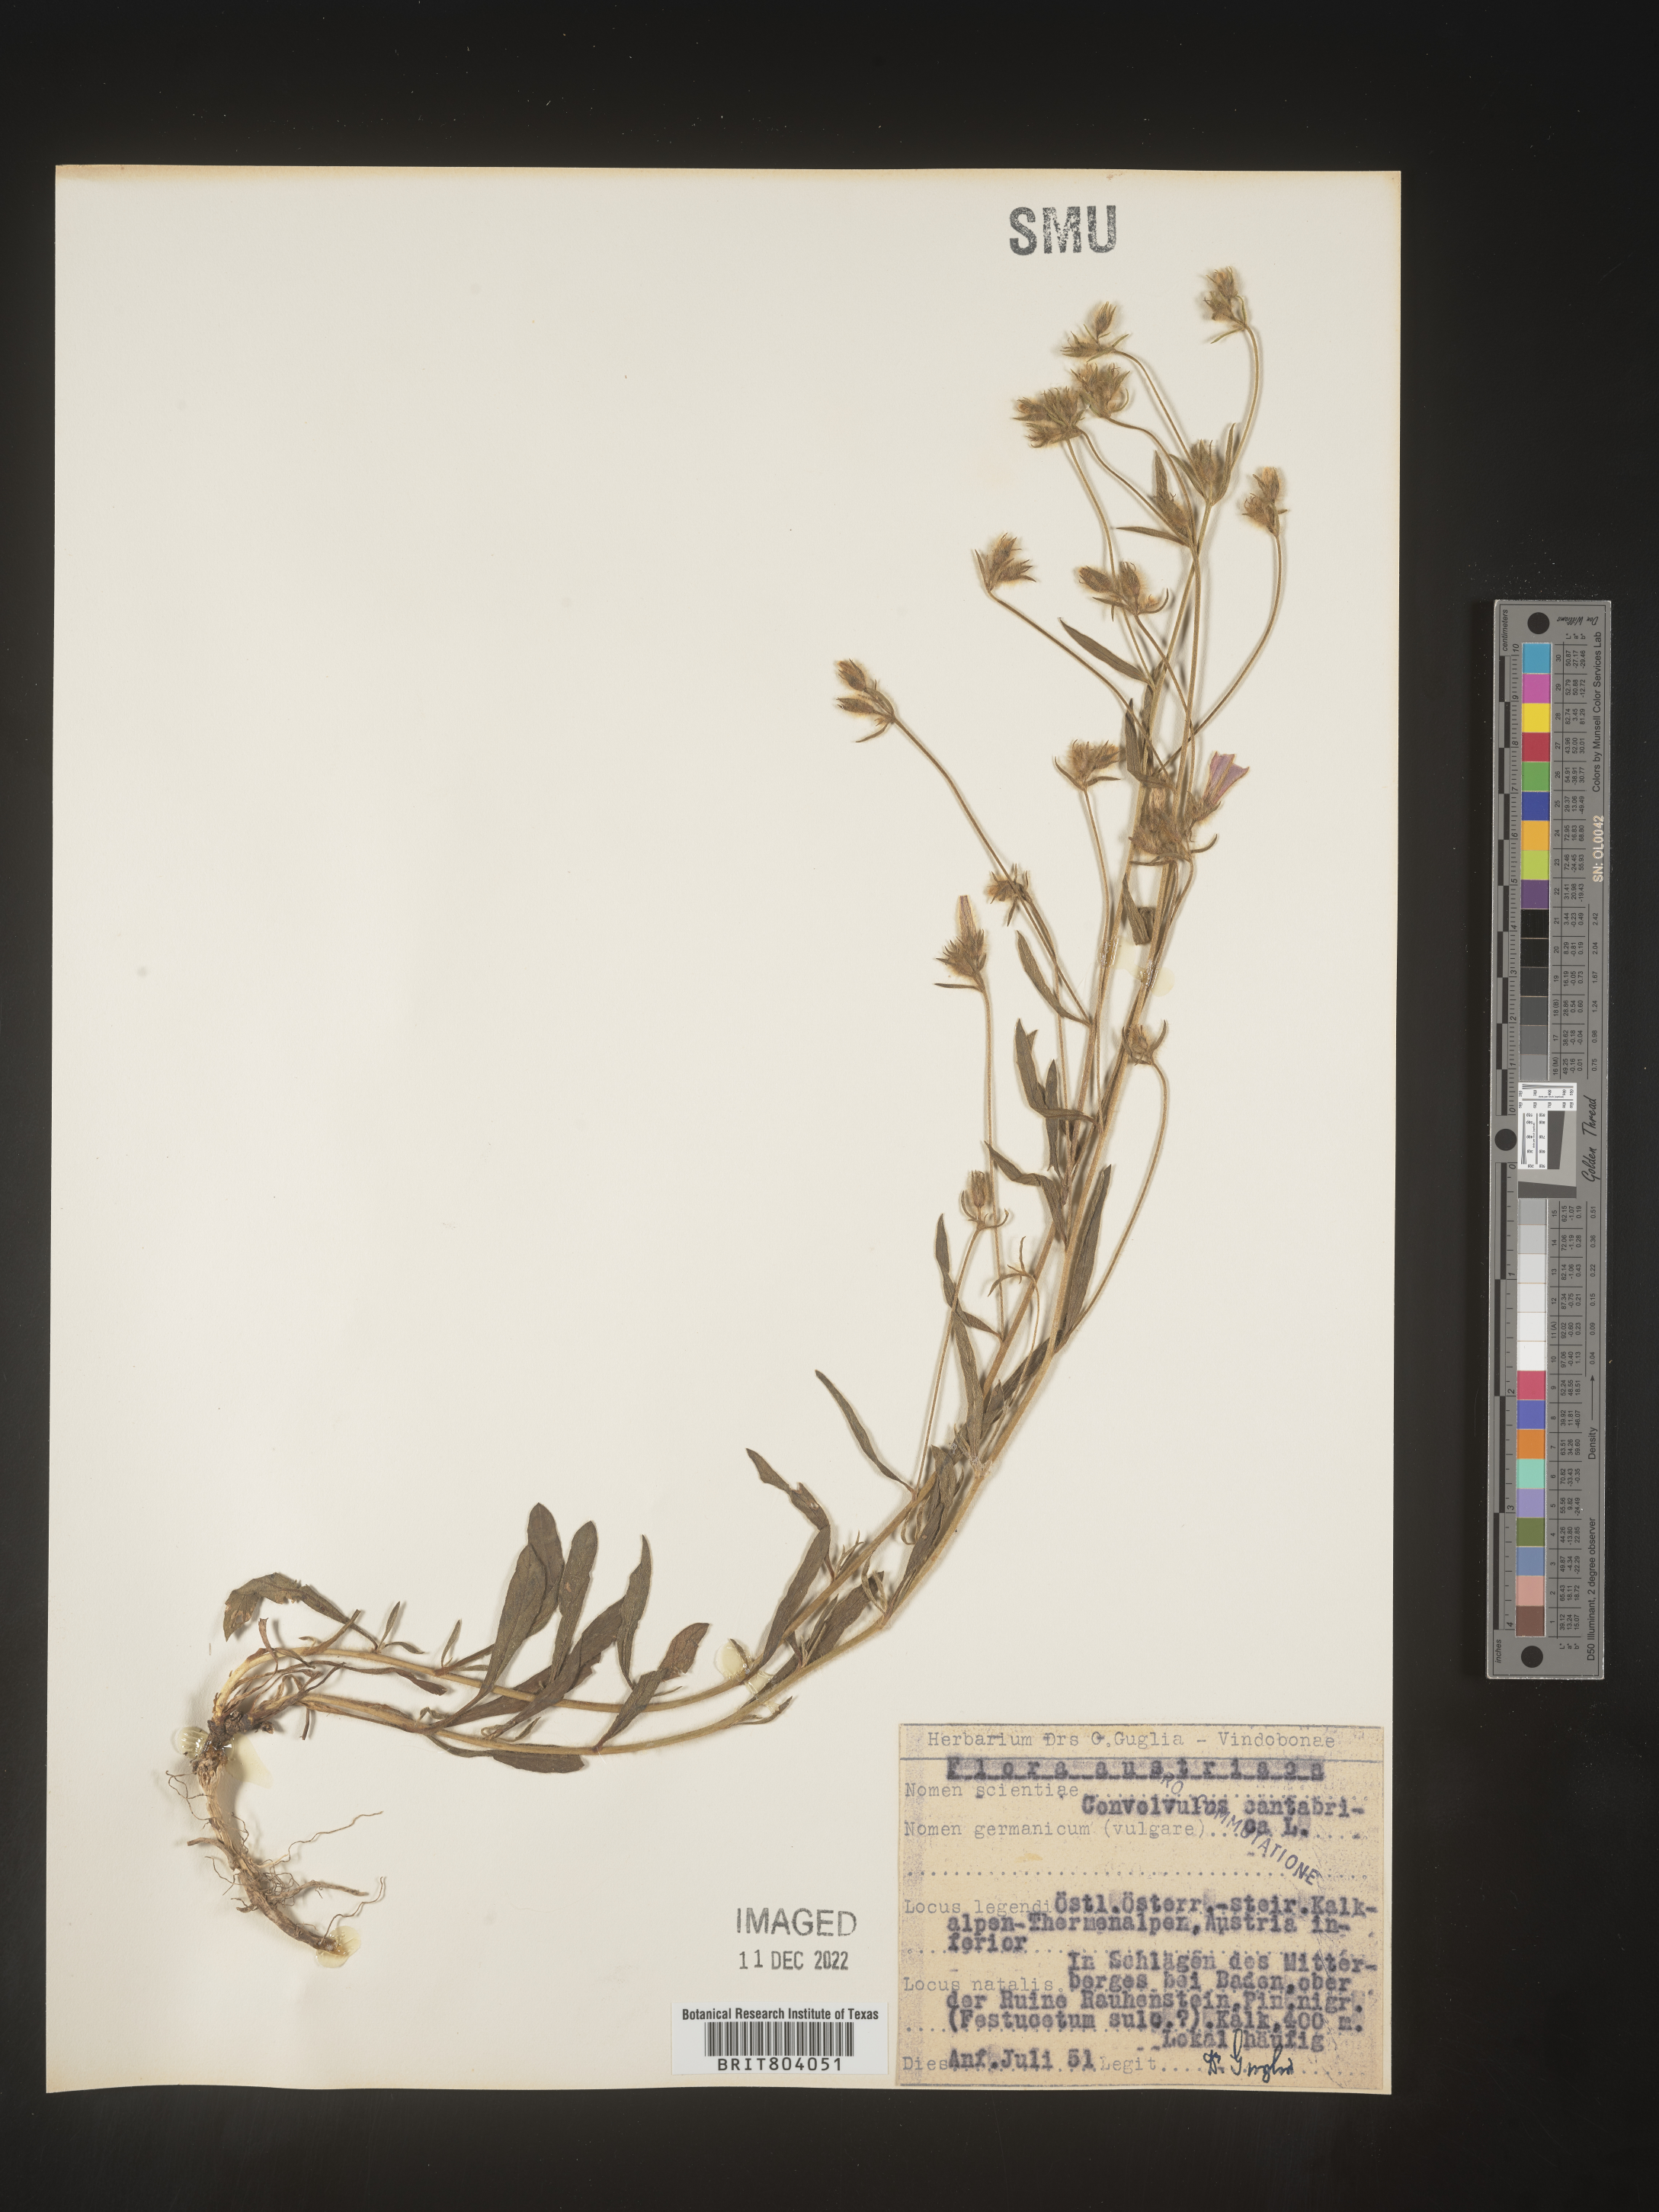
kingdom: Plantae
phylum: Tracheophyta
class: Magnoliopsida
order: Solanales
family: Convolvulaceae
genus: Convolvulus
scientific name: Convolvulus
